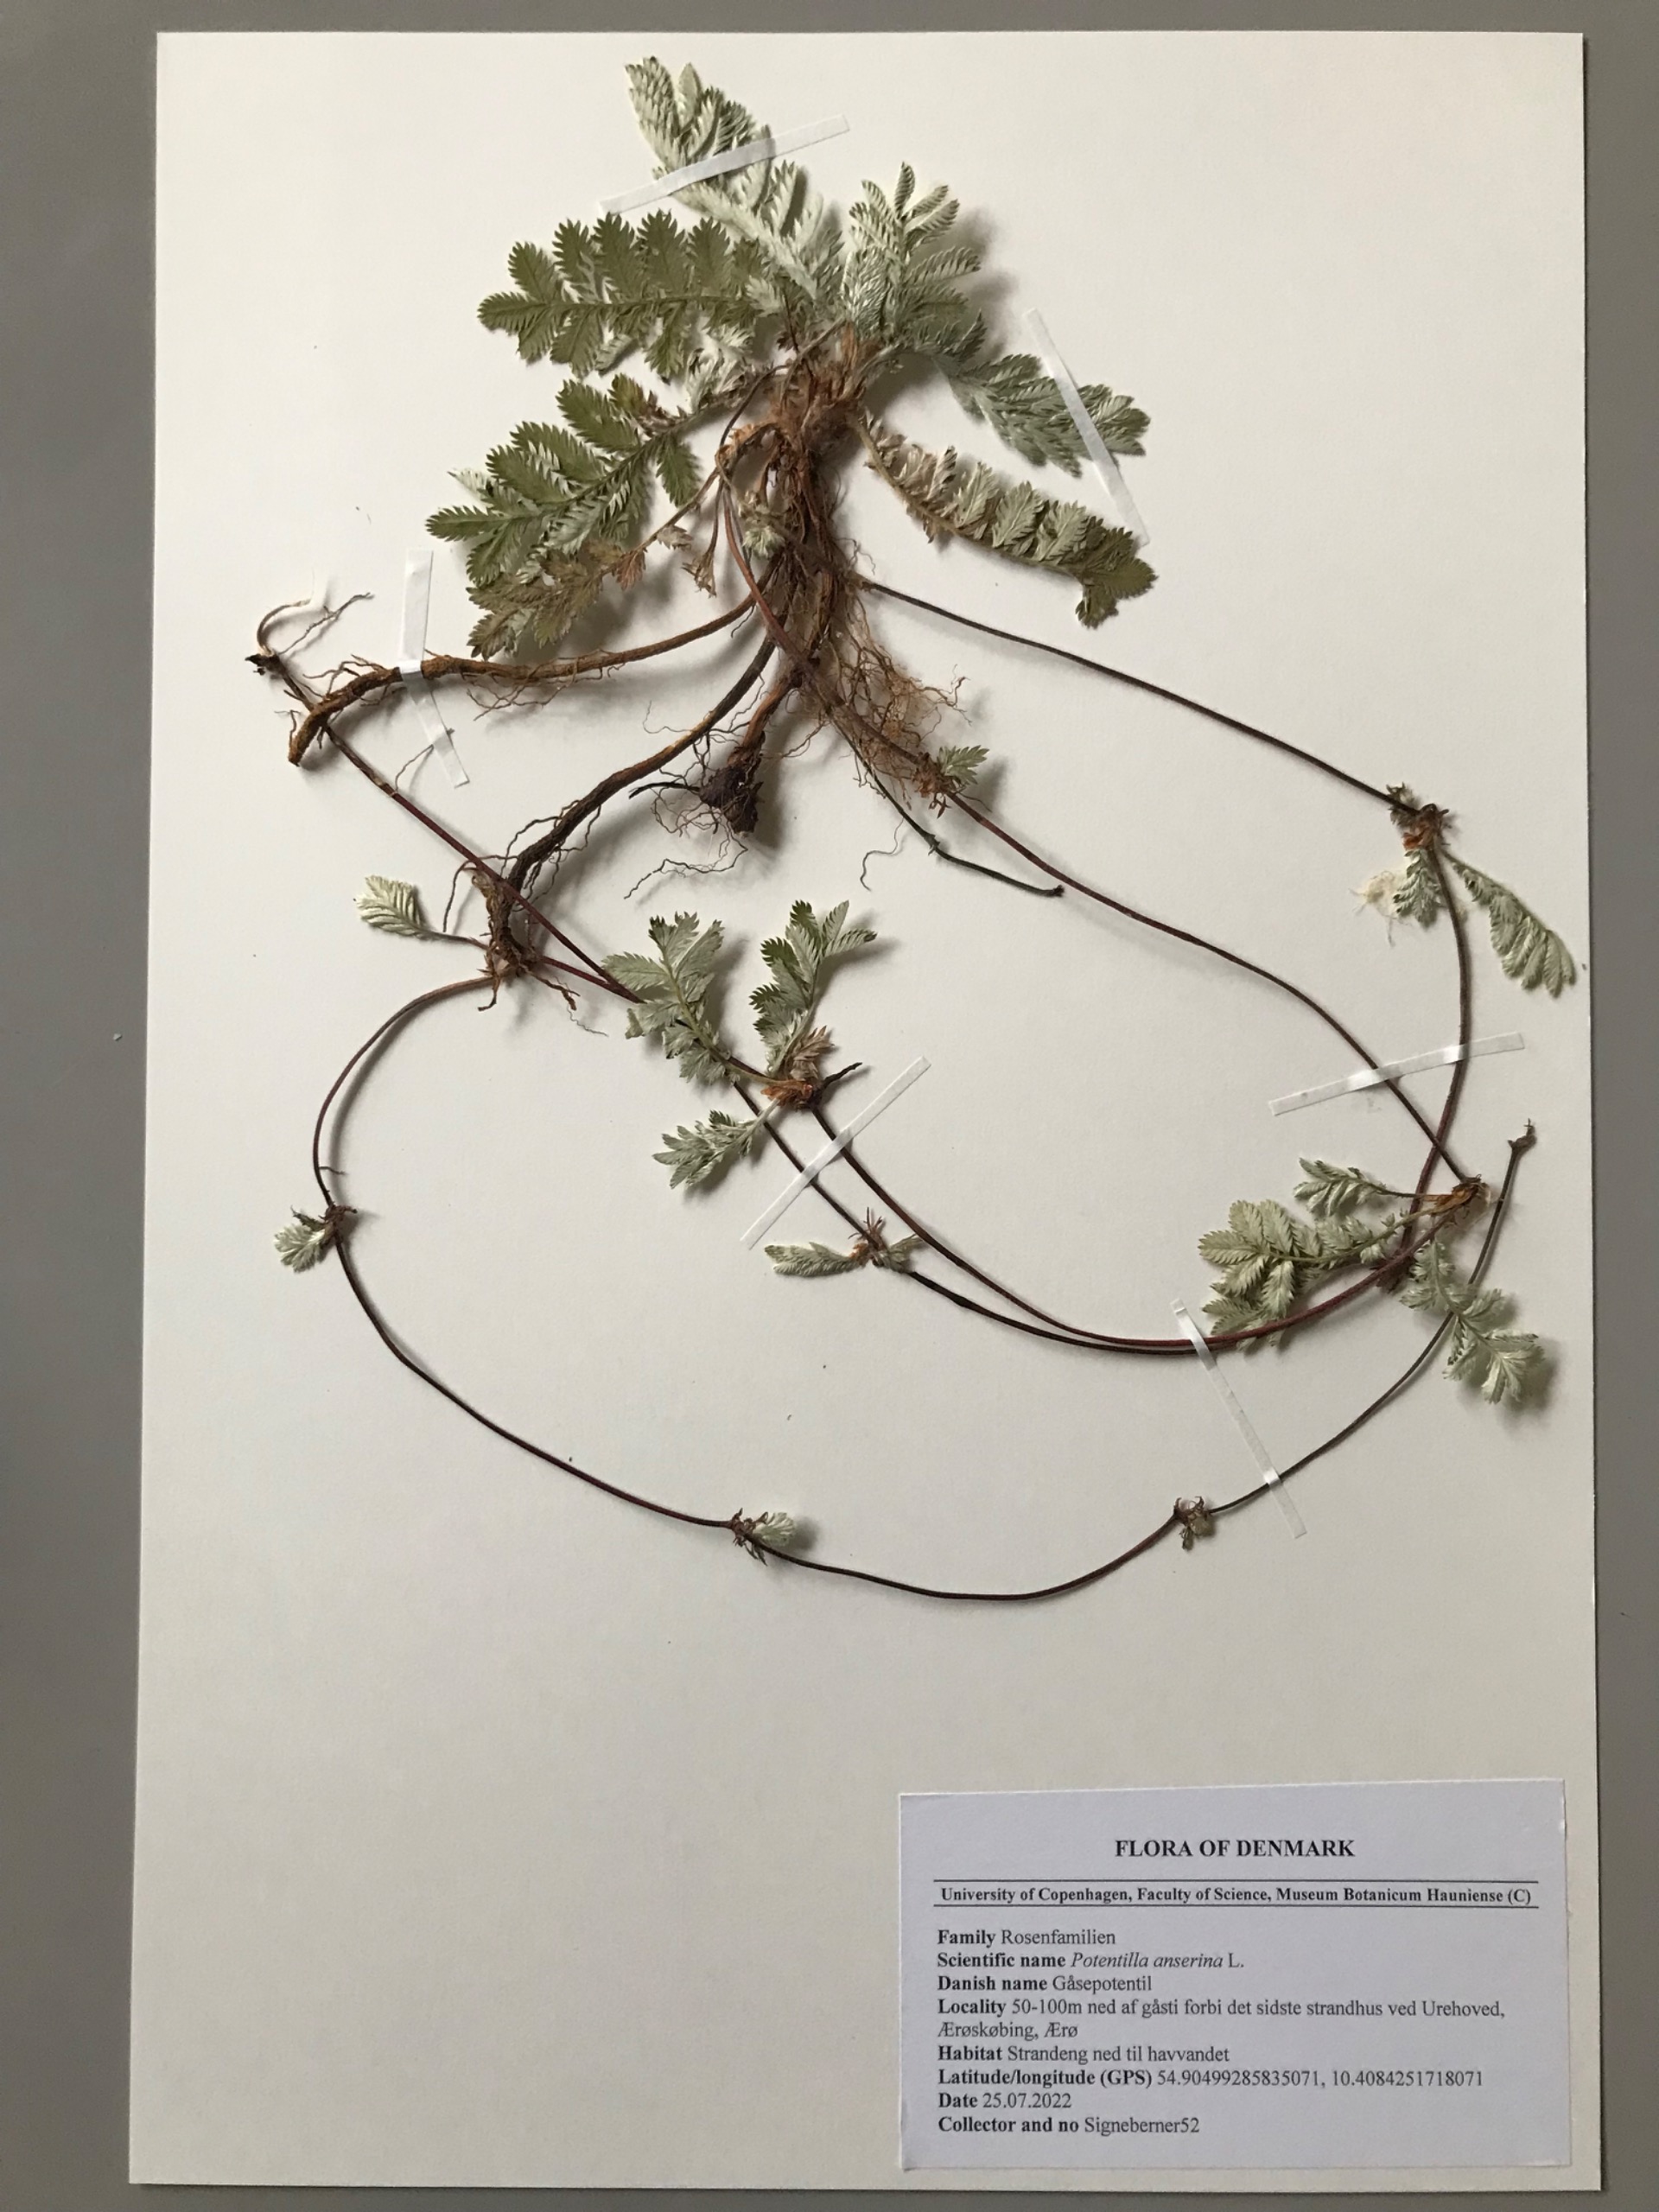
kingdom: Plantae
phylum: Tracheophyta
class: Magnoliopsida
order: Rosales
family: Rosaceae
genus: Argentina
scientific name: Argentina anserina
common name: Gåsepotentil
